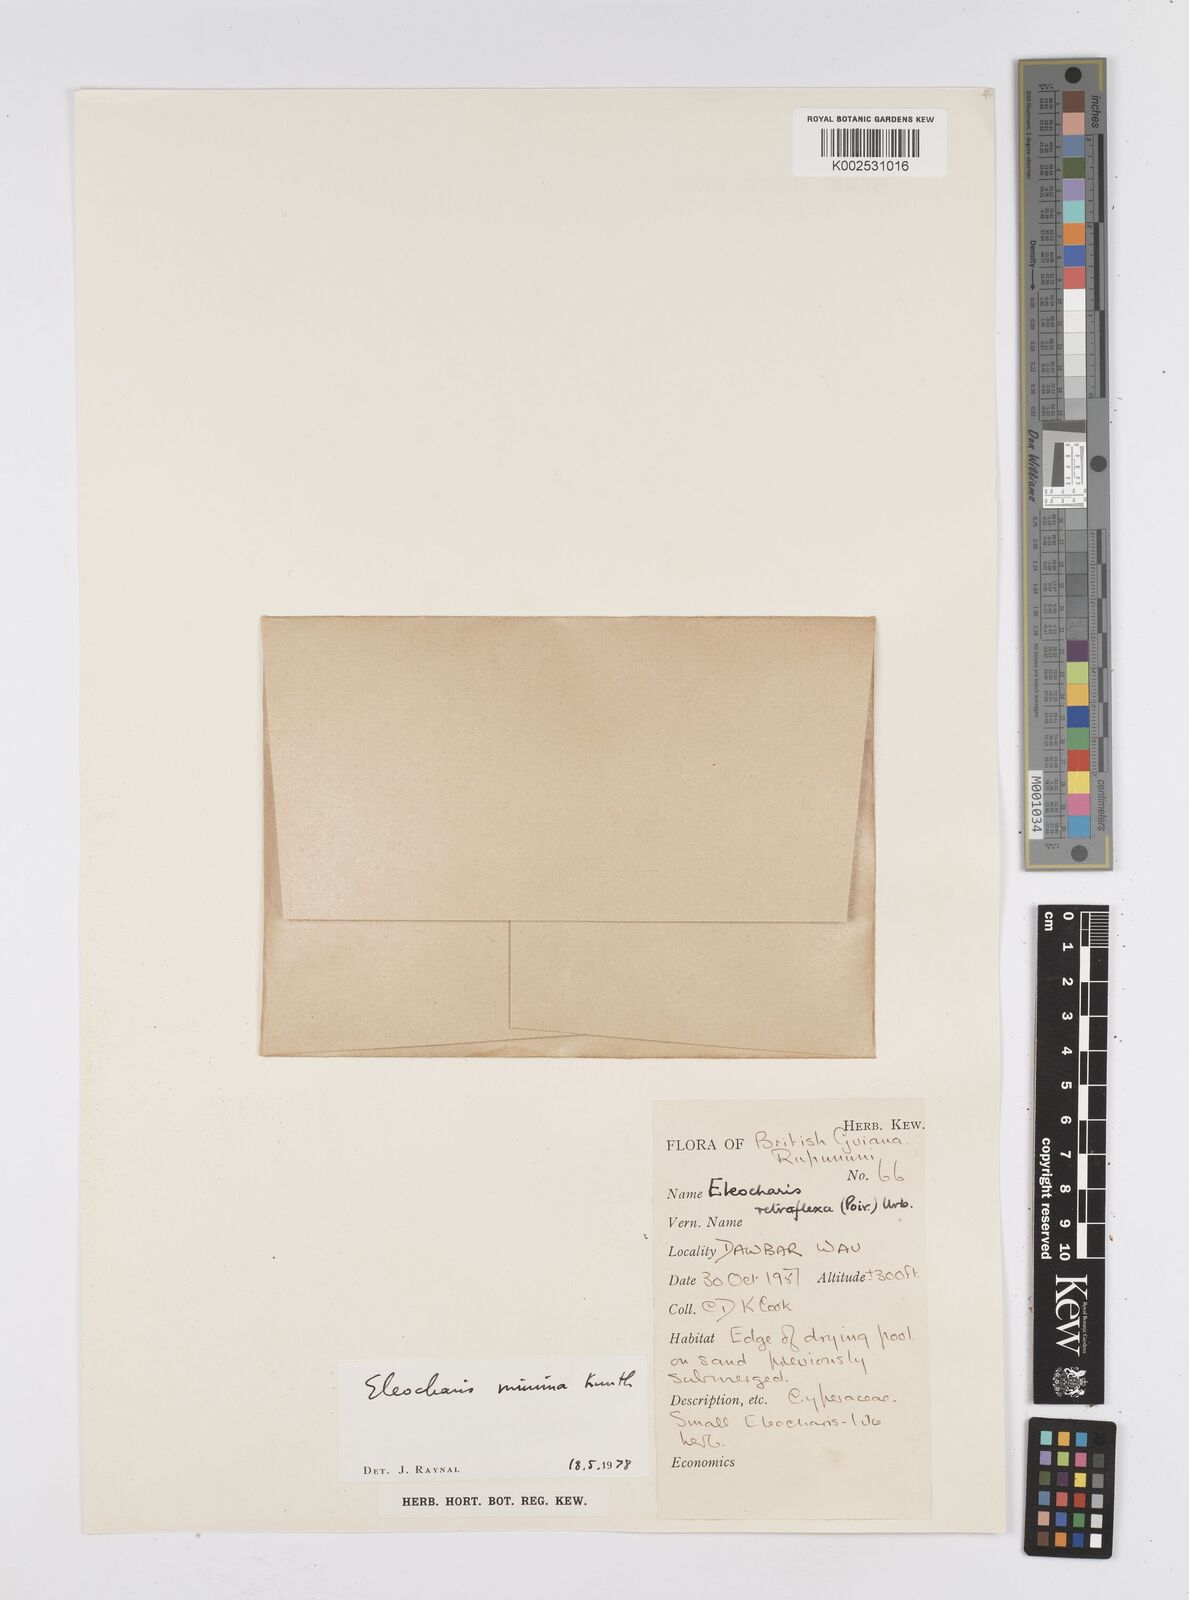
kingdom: Plantae
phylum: Tracheophyta
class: Liliopsida
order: Poales
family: Cyperaceae
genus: Eleocharis
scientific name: Eleocharis minima
